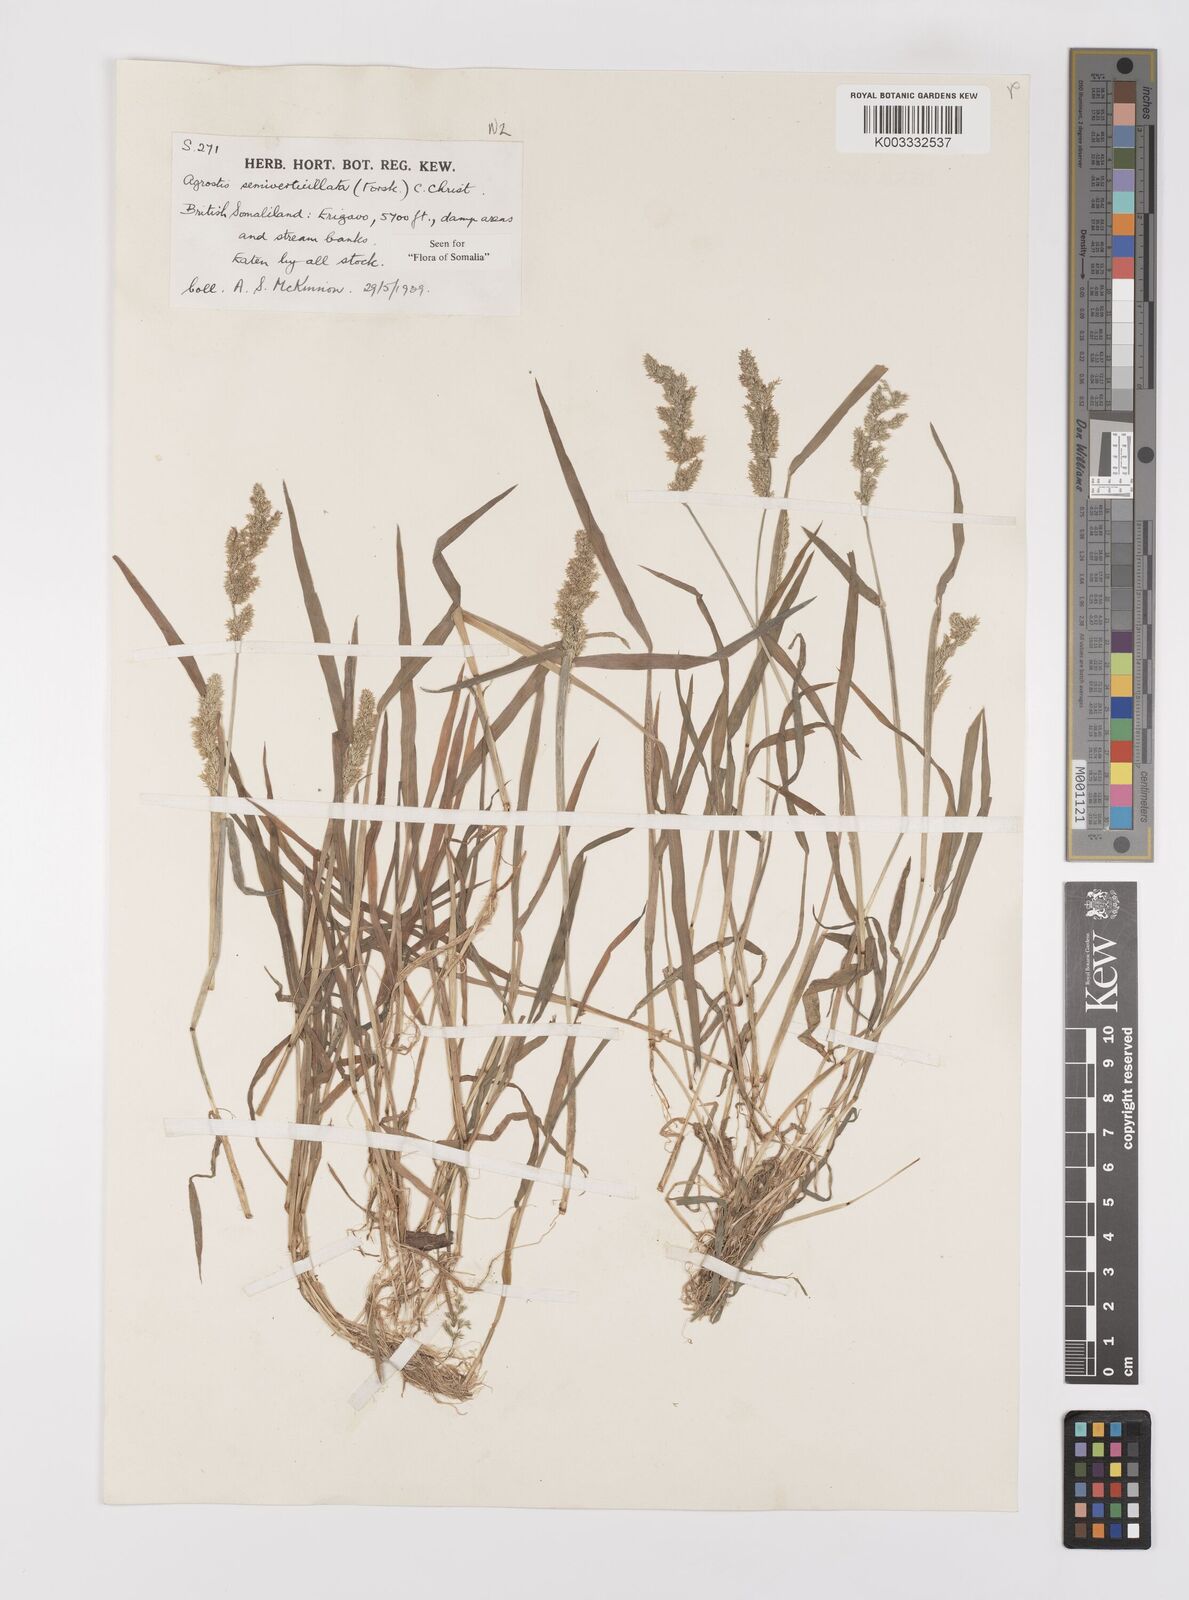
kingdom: Plantae
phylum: Tracheophyta
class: Liliopsida
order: Poales
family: Poaceae
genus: Polypogon
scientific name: Polypogon viridis
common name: Water bent
